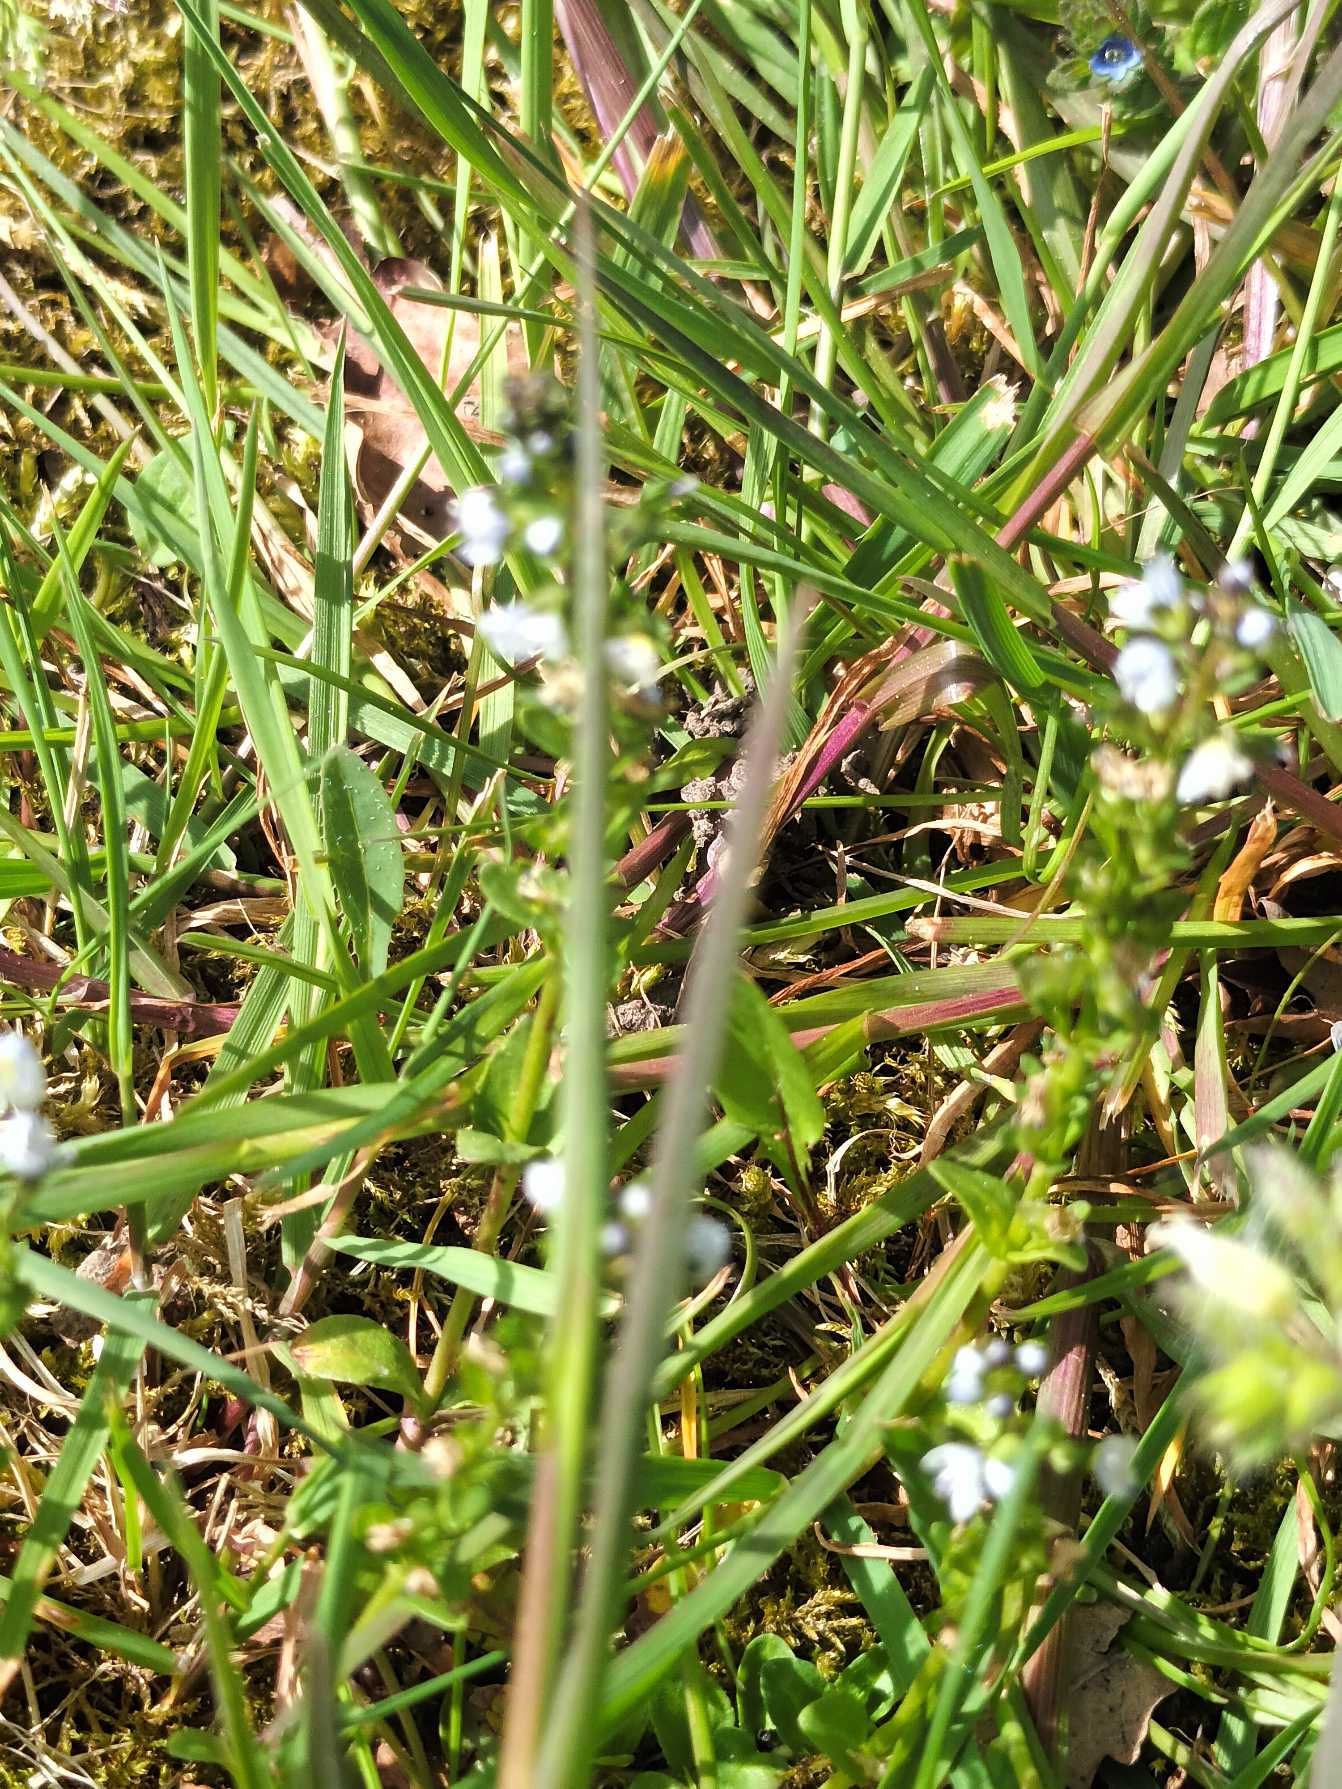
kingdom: Plantae
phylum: Tracheophyta
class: Magnoliopsida
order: Lamiales
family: Plantaginaceae
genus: Veronica
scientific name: Veronica serpyllifolia
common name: Glat ærenpris
